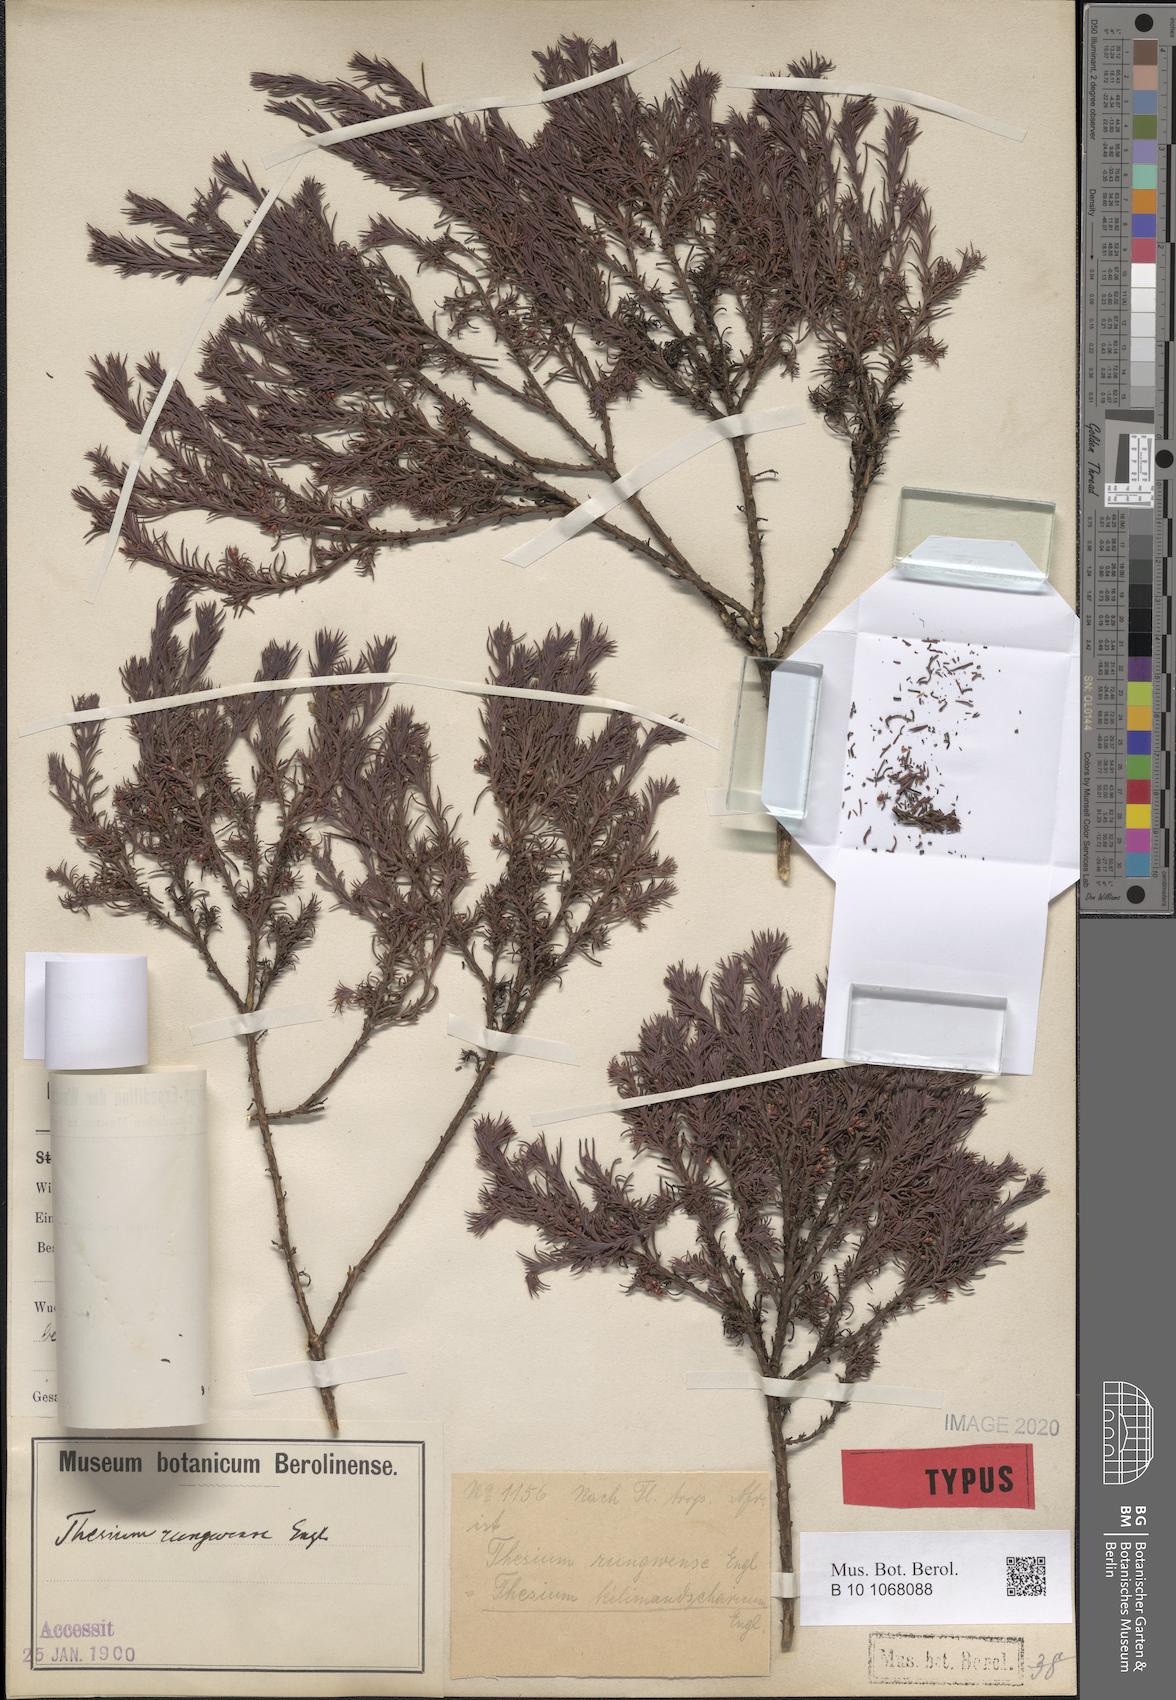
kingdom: Plantae
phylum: Tracheophyta
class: Magnoliopsida
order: Santalales
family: Thesiaceae
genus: Thesium
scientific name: Thesium kilimandscharicum
